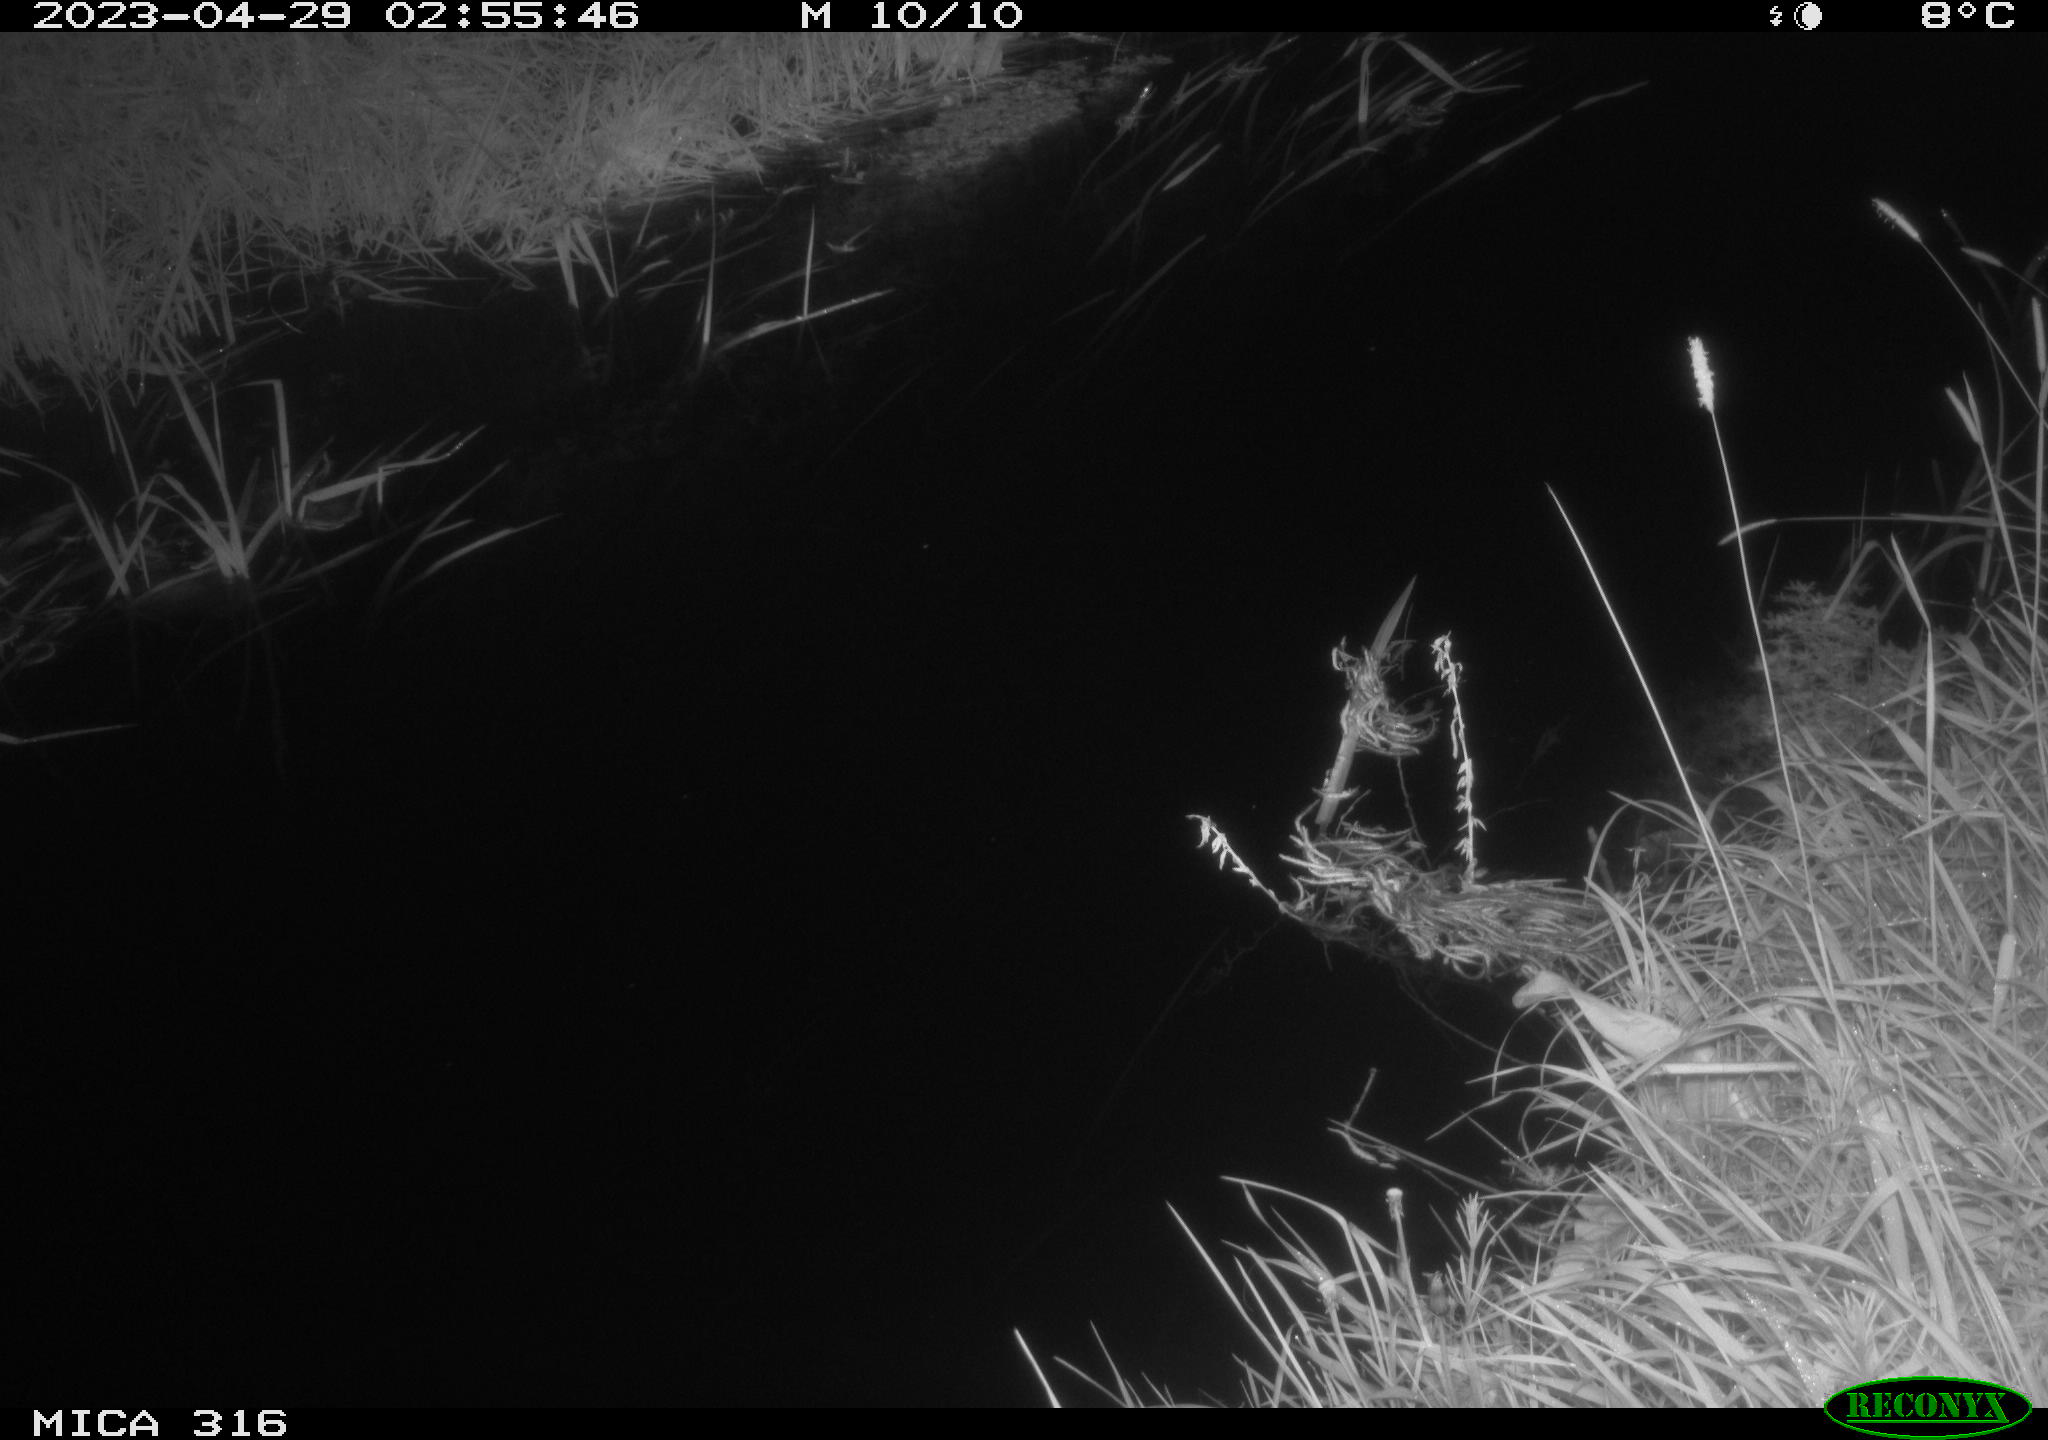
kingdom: Animalia
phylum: Chordata
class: Aves
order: Anseriformes
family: Anatidae
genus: Anas
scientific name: Anas
